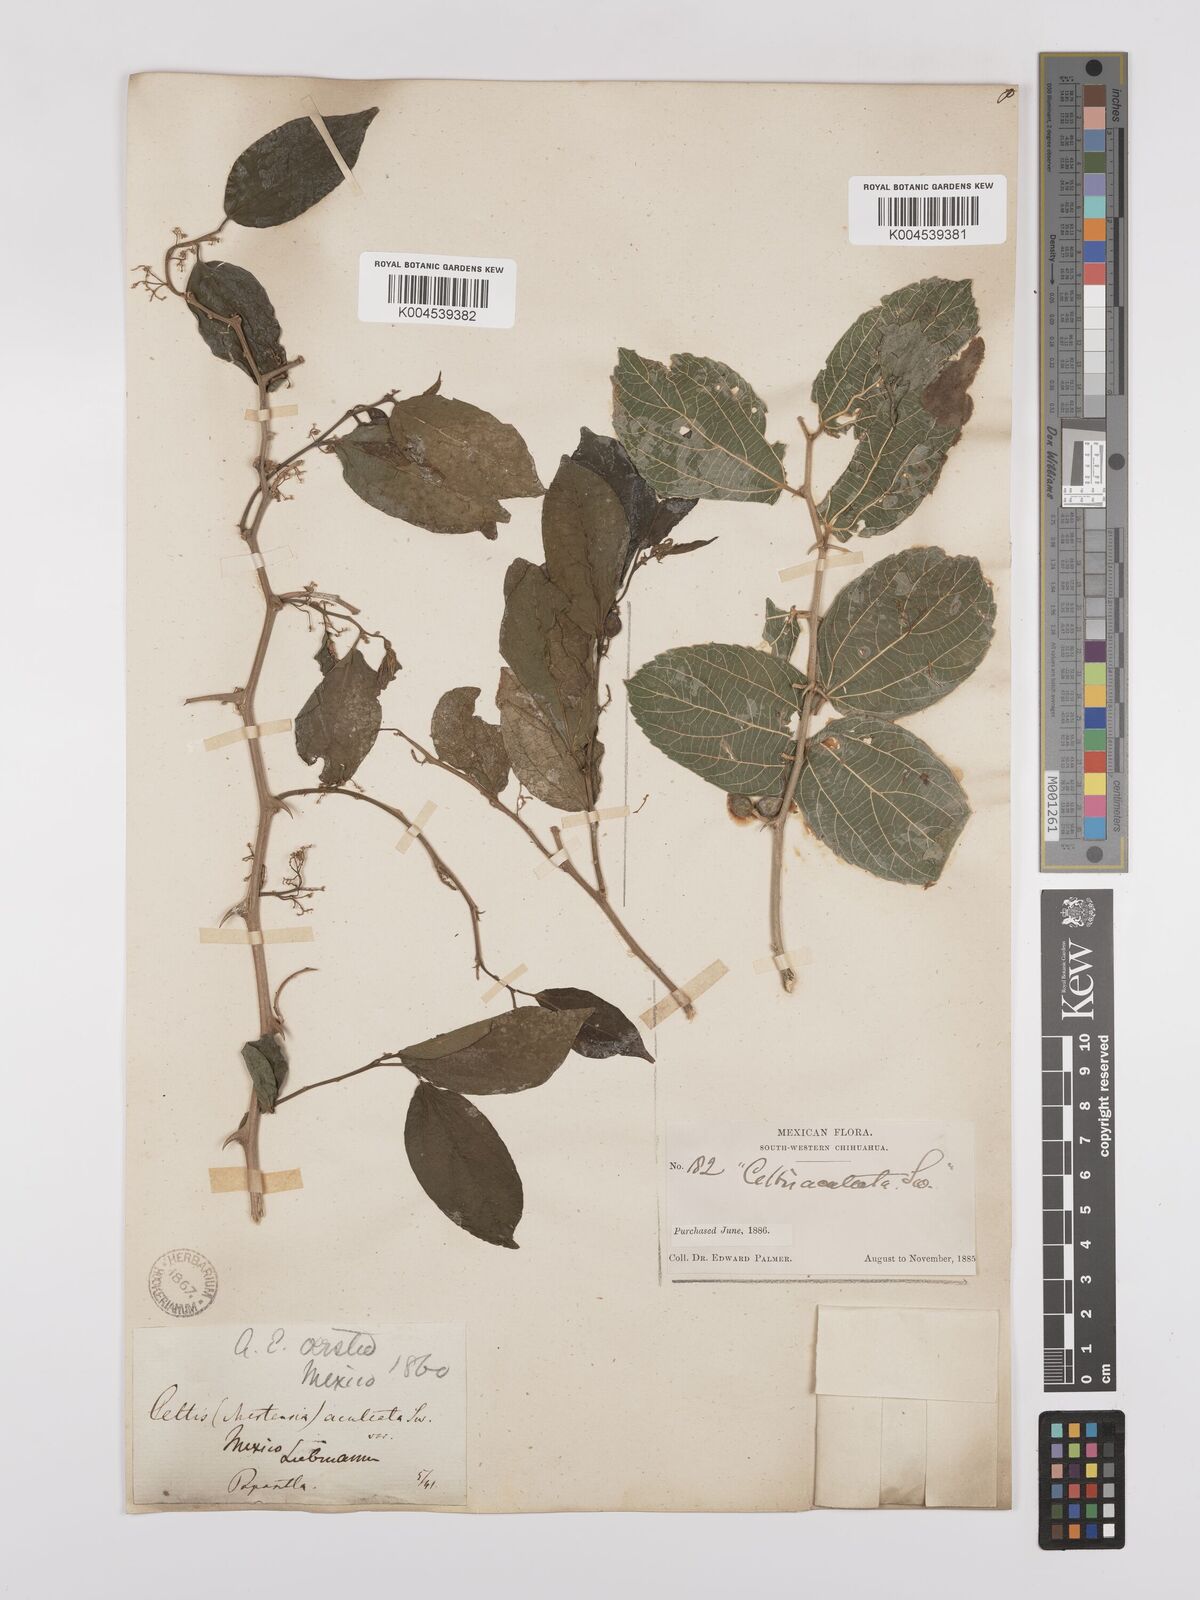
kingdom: Plantae
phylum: Tracheophyta
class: Magnoliopsida
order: Rosales
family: Cannabaceae
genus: Celtis
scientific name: Celtis iguanaea
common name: Iguana hackberry
